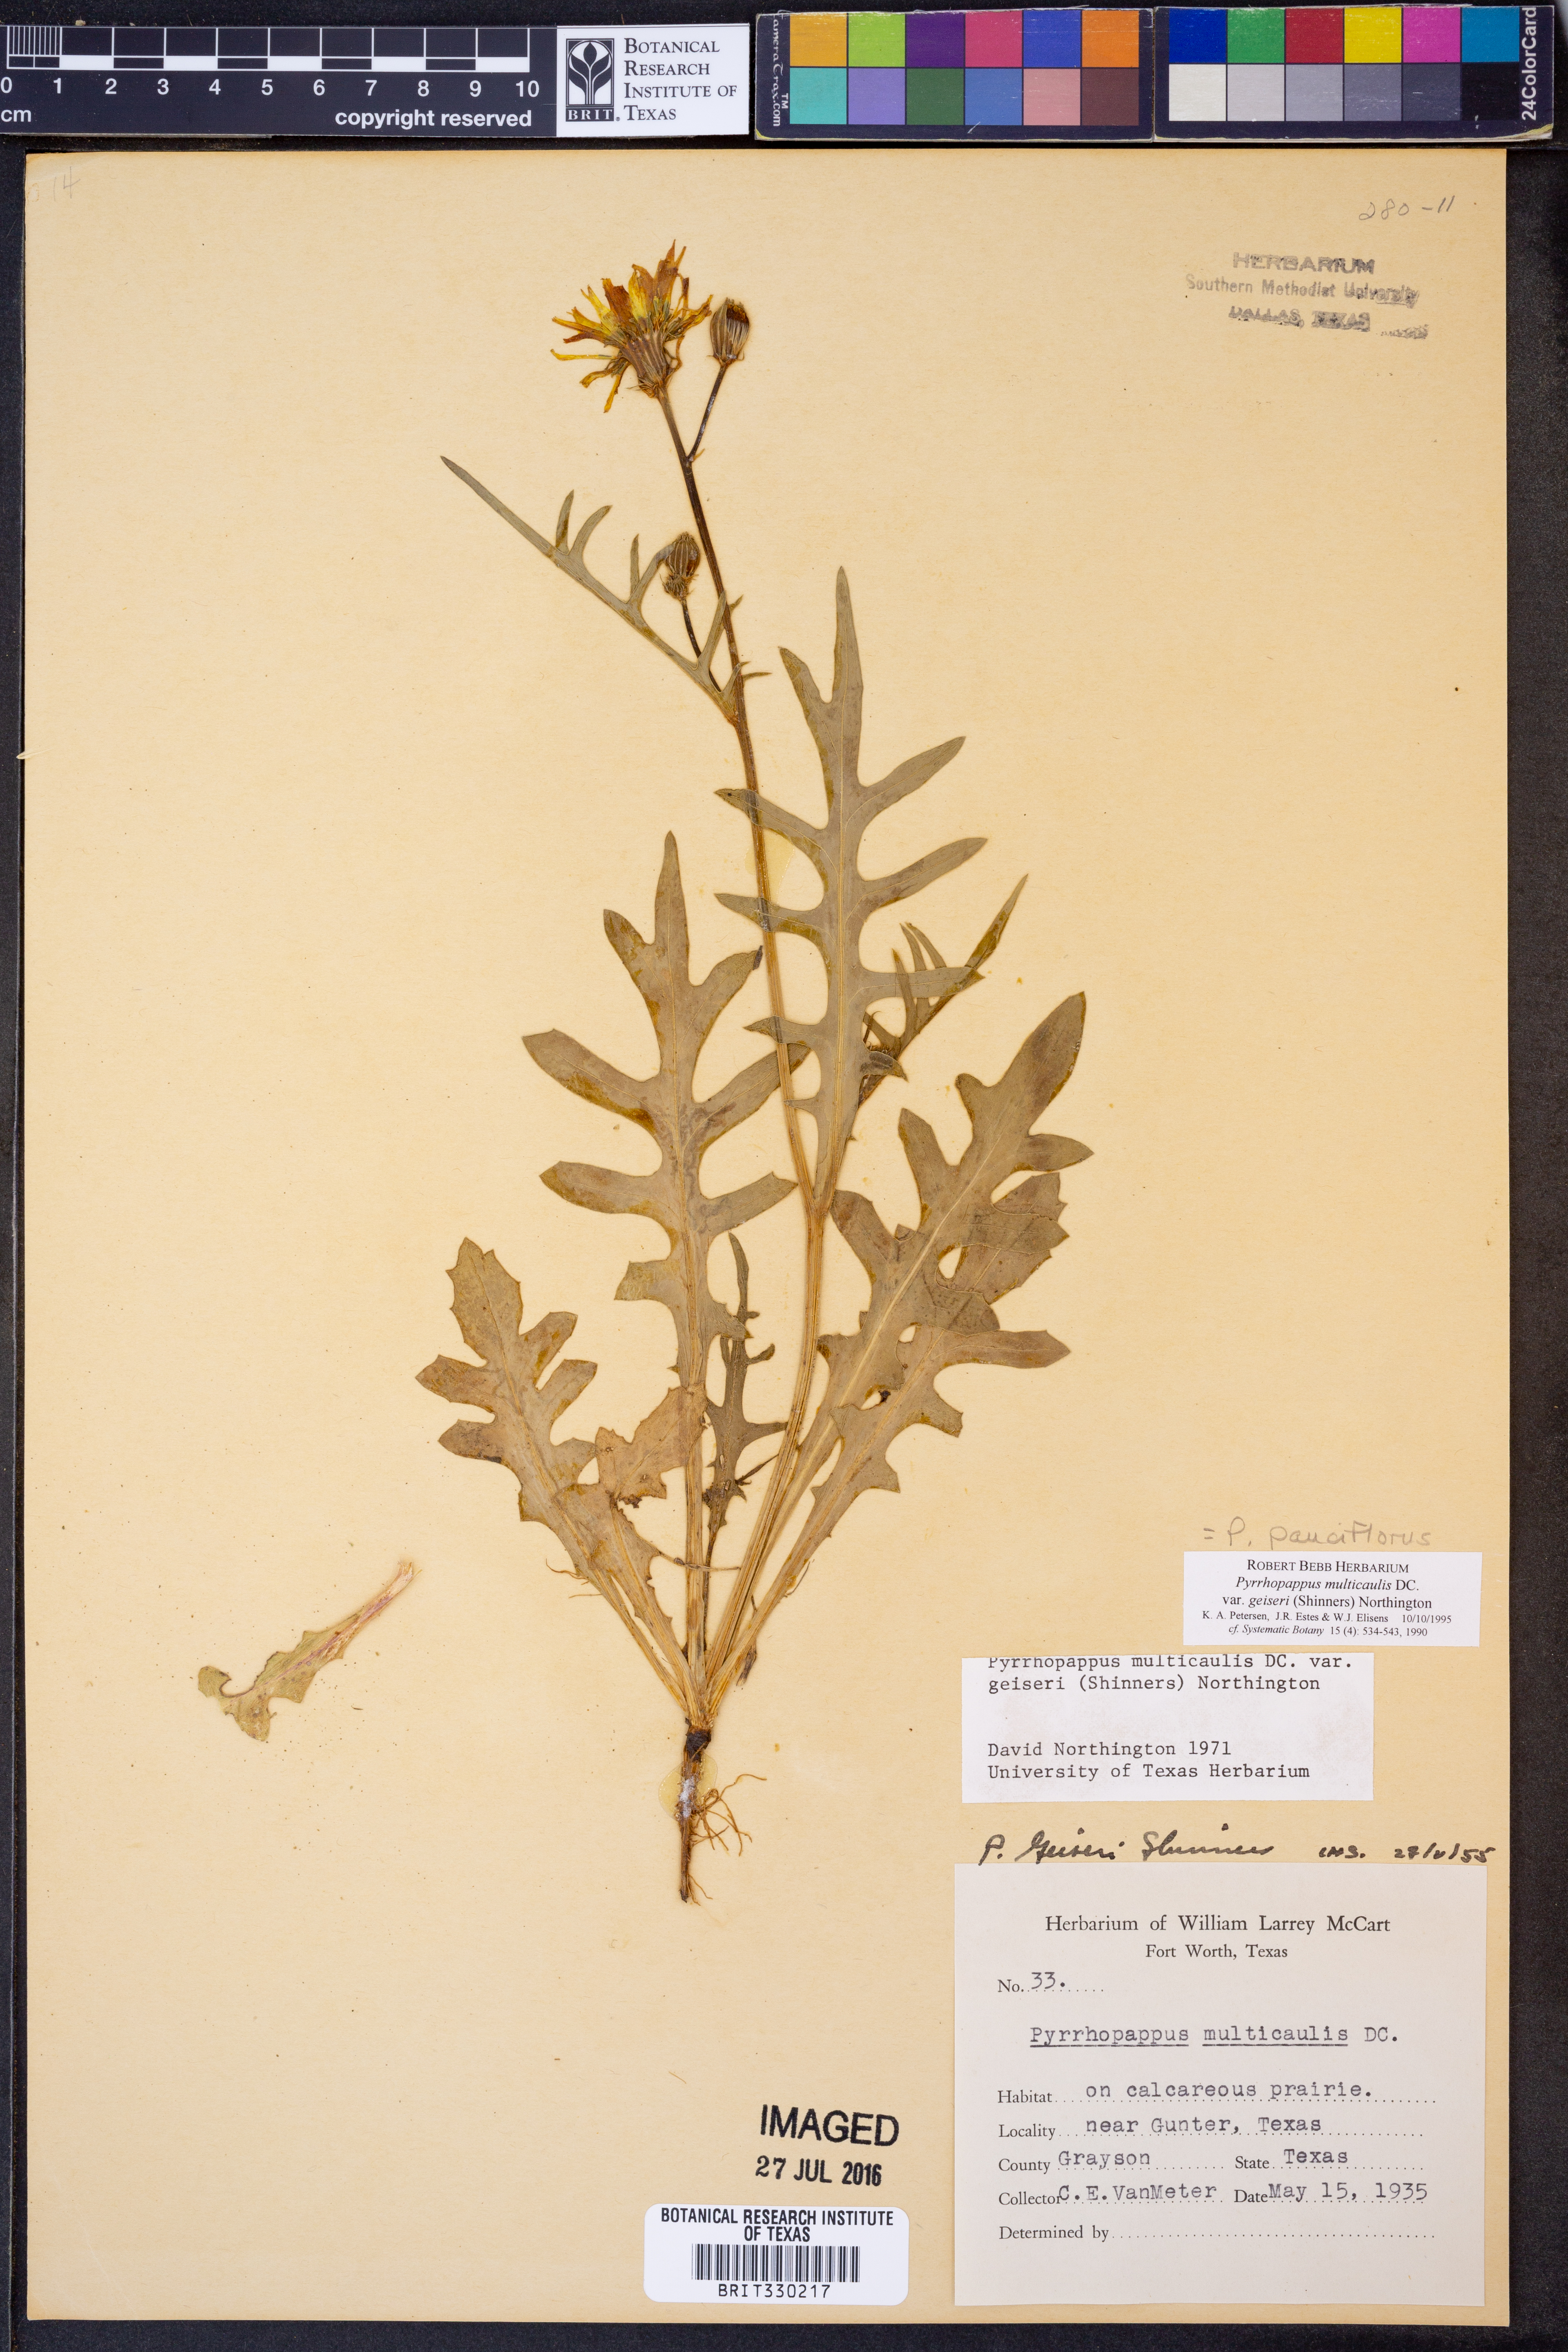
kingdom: Plantae
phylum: Tracheophyta
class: Magnoliopsida
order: Asterales
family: Asteraceae
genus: Pyrrhopappus
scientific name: Pyrrhopappus pauciflorus
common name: Texas false dandelion
